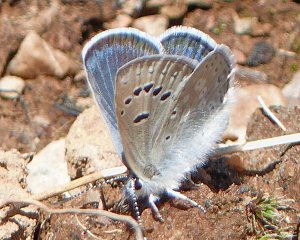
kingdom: Animalia
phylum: Arthropoda
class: Insecta
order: Lepidoptera
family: Lycaenidae
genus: Icaricia
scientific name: Icaricia icarioides
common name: Boisduval's Blue
